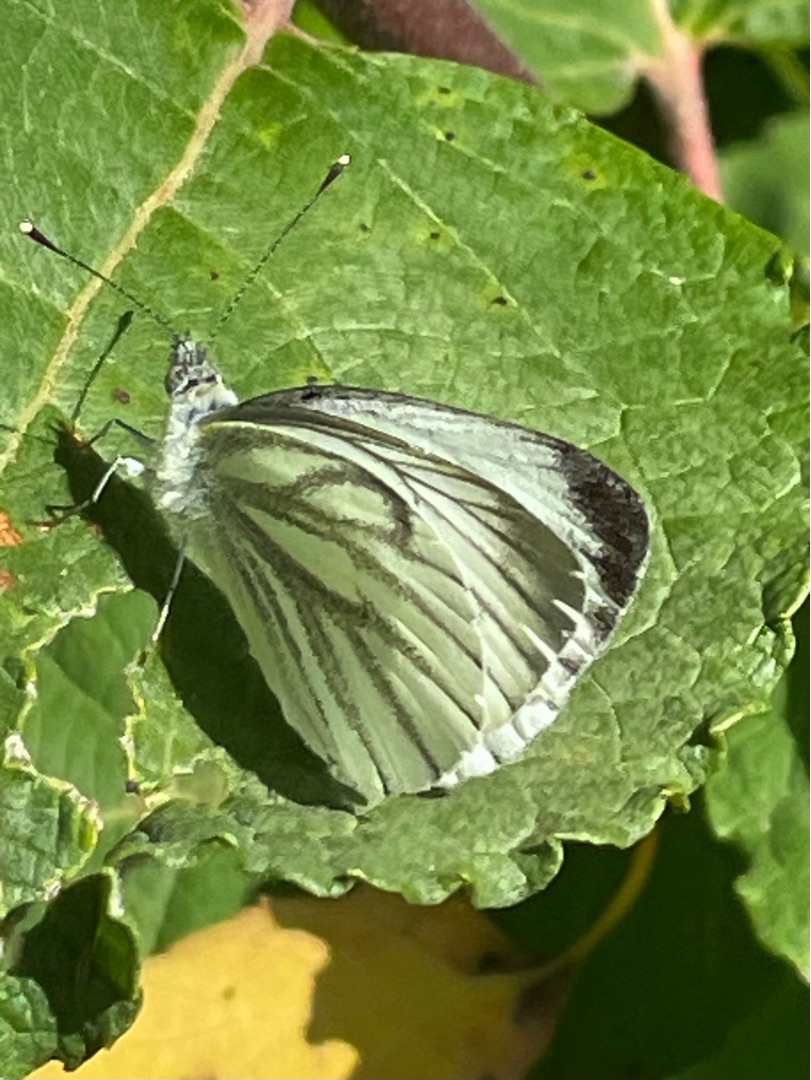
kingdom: Animalia
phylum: Arthropoda
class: Insecta
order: Lepidoptera
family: Pieridae
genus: Pieris
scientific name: Pieris napi
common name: Grønåret kålsommerfugl
